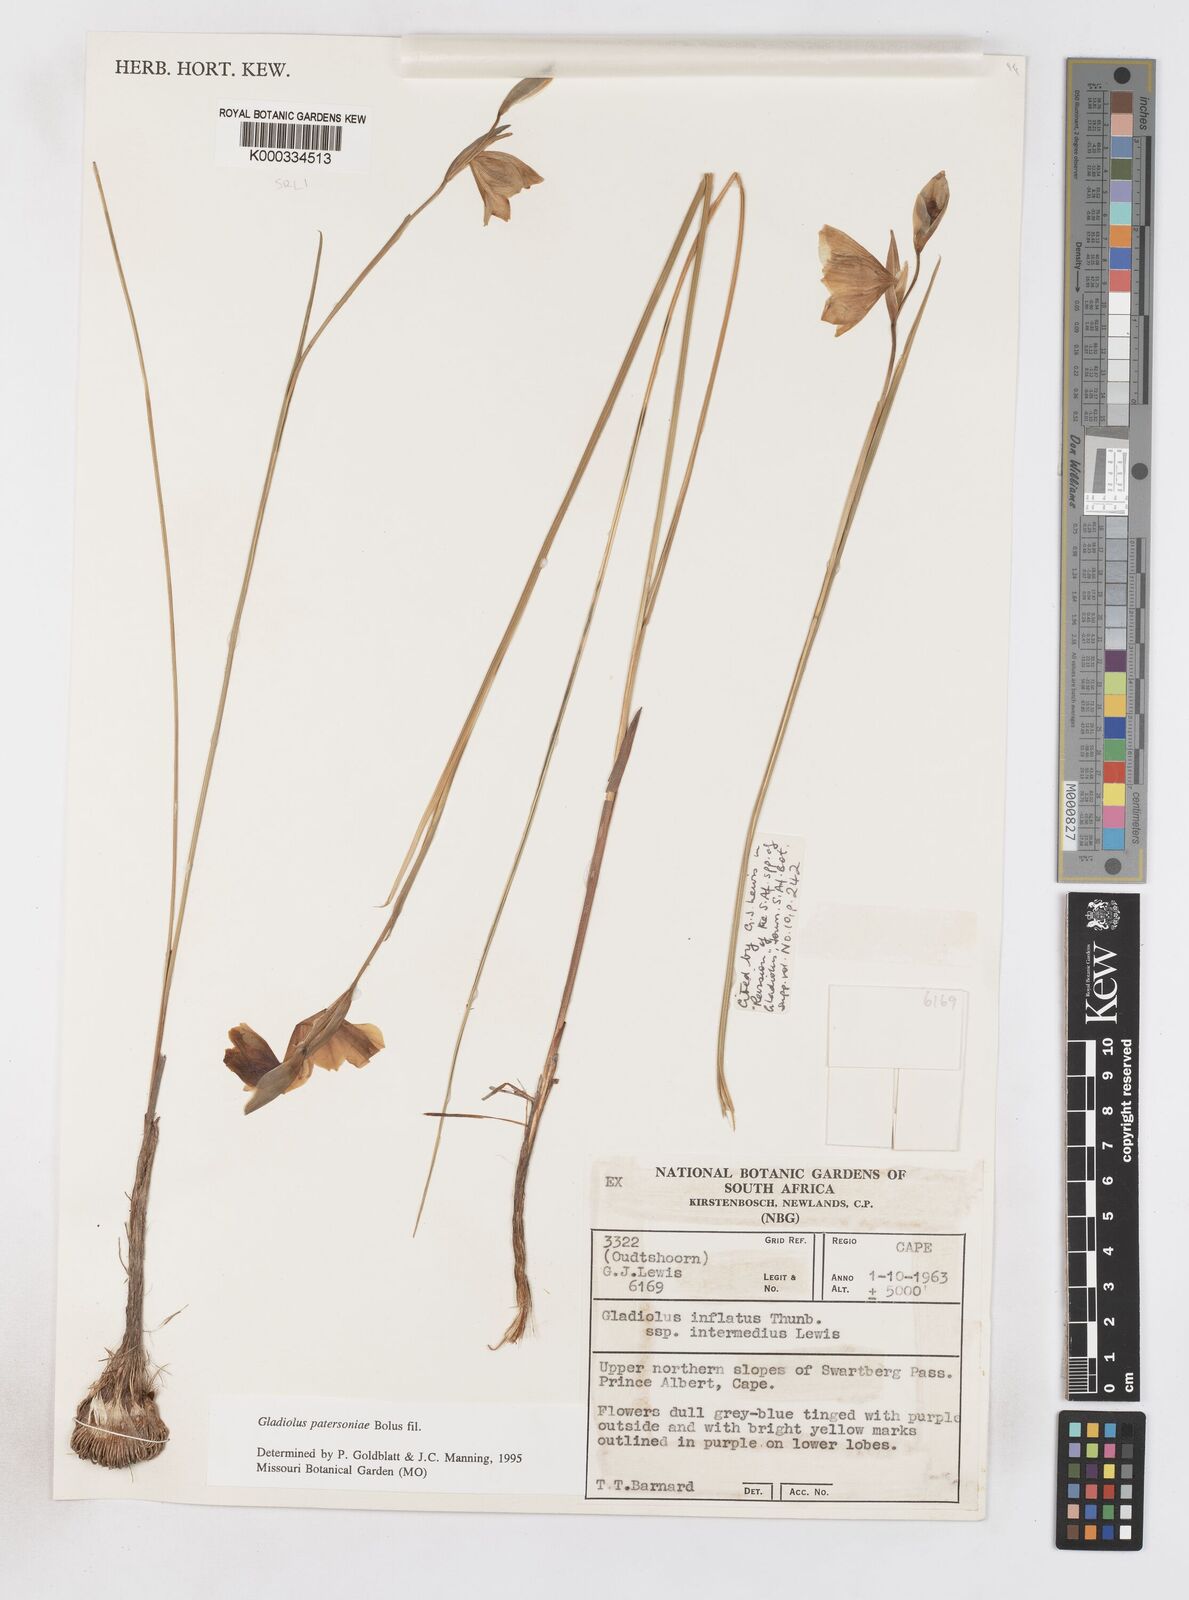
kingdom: Plantae
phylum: Tracheophyta
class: Liliopsida
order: Asparagales
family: Iridaceae
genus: Gladiolus
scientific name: Gladiolus patersoniae
